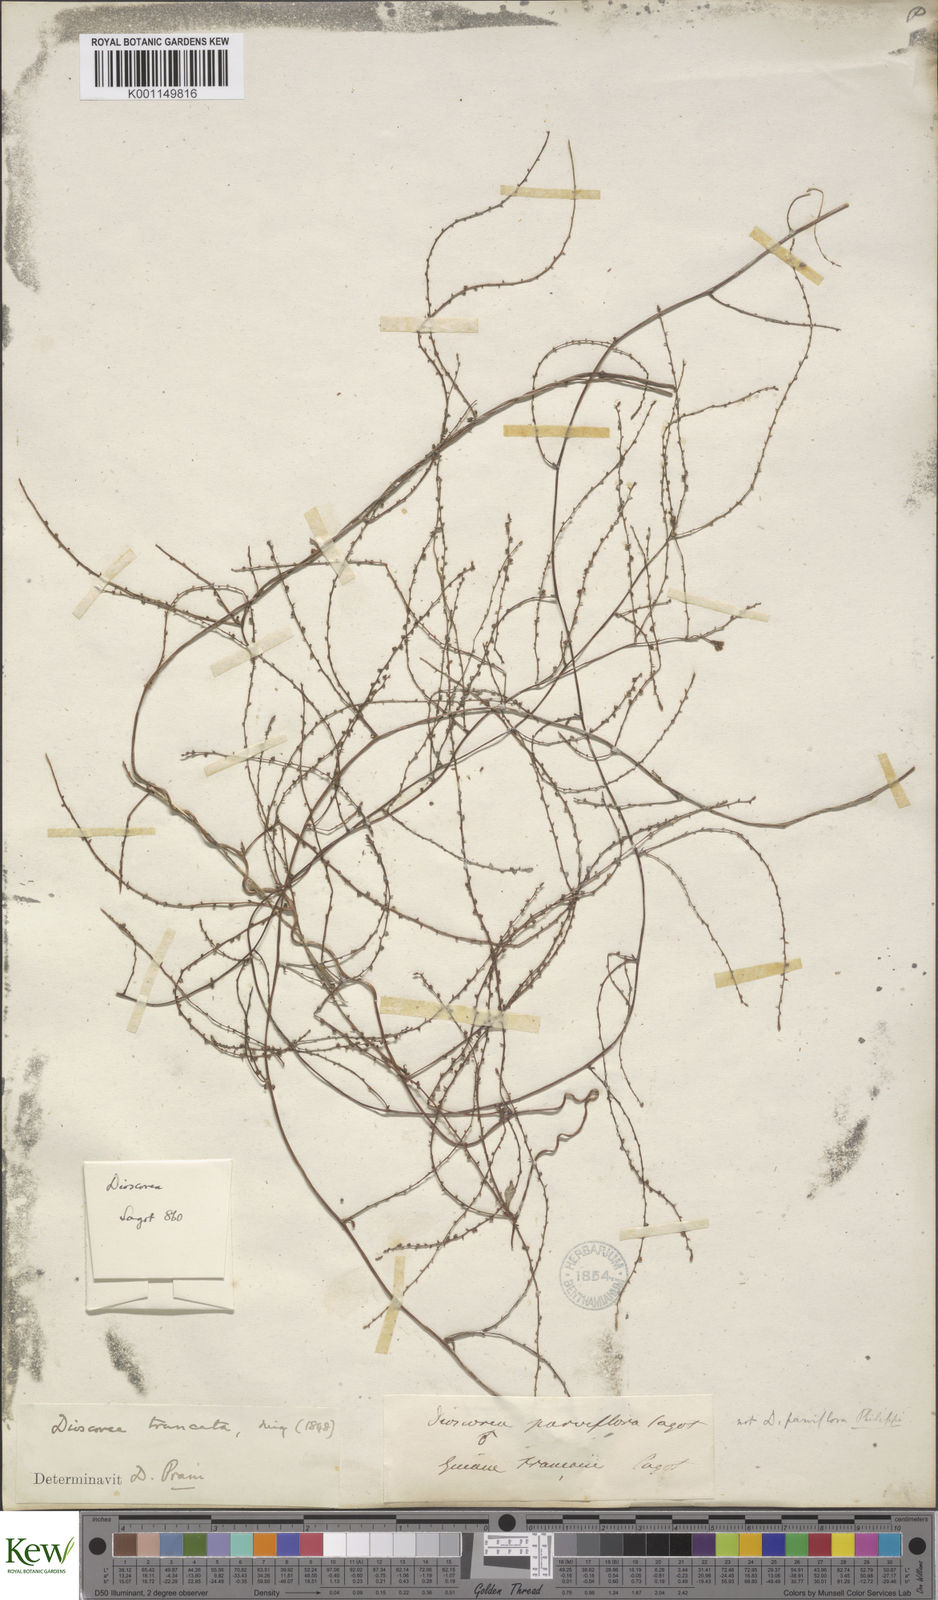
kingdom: Plantae
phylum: Tracheophyta
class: Liliopsida
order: Dioscoreales
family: Dioscoreaceae
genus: Dioscorea
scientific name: Dioscorea
